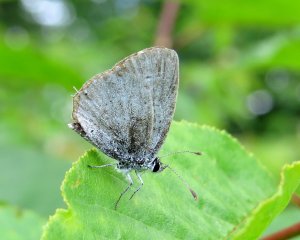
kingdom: Animalia
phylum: Arthropoda
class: Insecta
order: Lepidoptera
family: Lycaenidae
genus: Elkalyce
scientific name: Elkalyce amyntula
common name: Western Tailed-Blue
